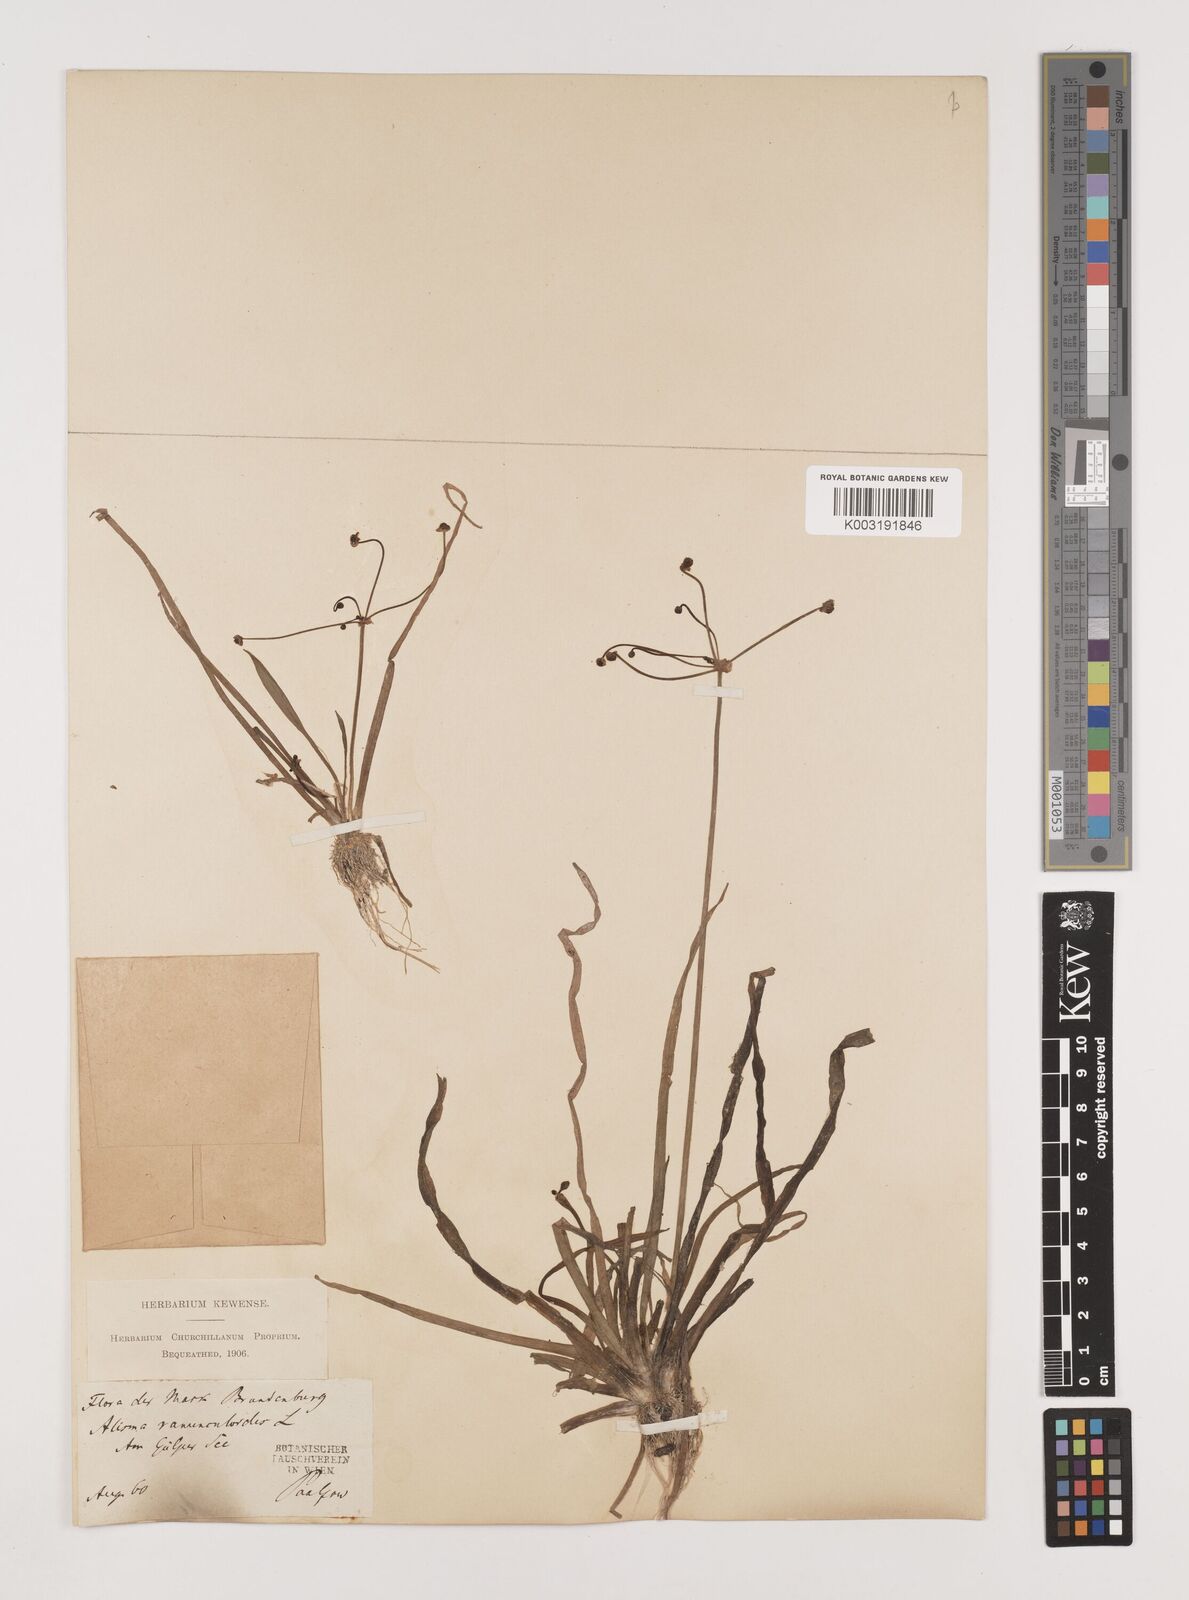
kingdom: Plantae
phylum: Tracheophyta
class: Liliopsida
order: Alismatales
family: Alismataceae
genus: Baldellia
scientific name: Baldellia ranunculoides
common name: Lesser water-plantain
